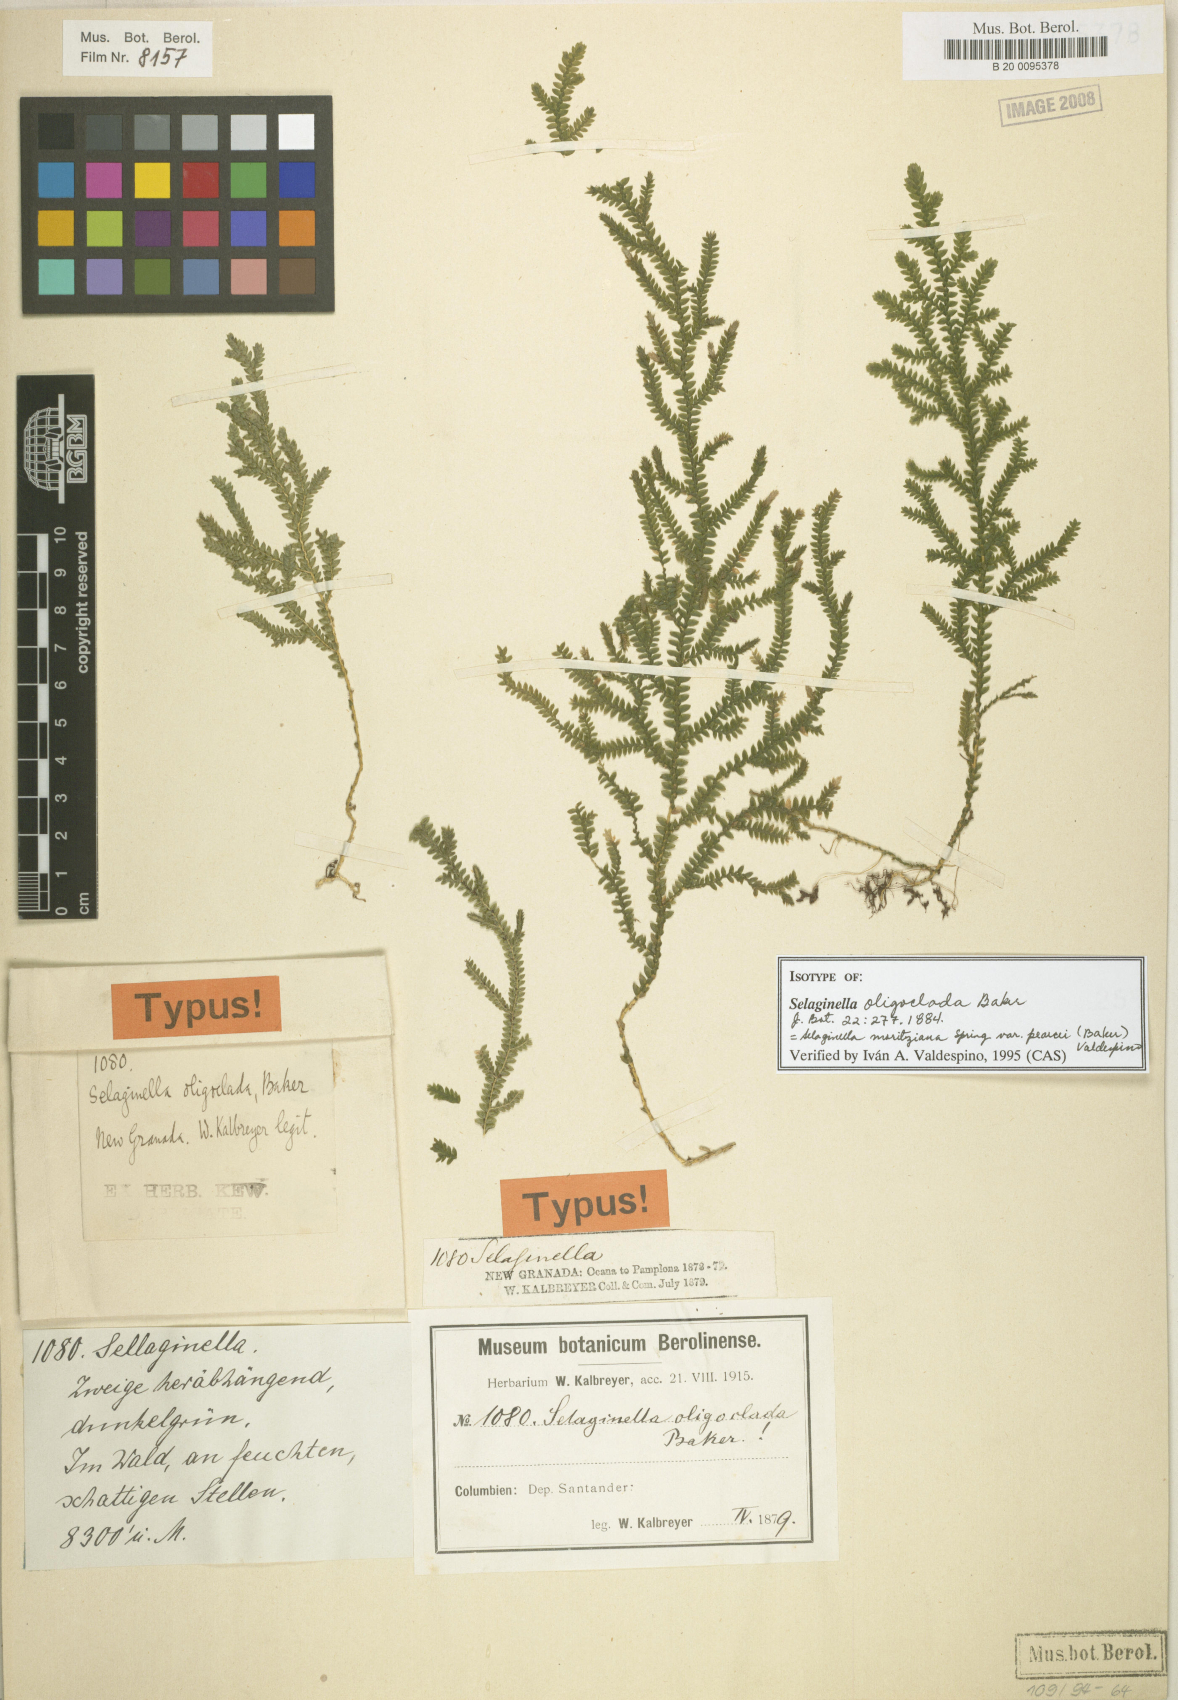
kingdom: Plantae
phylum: Tracheophyta
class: Lycopodiopsida
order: Selaginellales
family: Selaginellaceae
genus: Selaginella
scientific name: Selaginella moritziana
